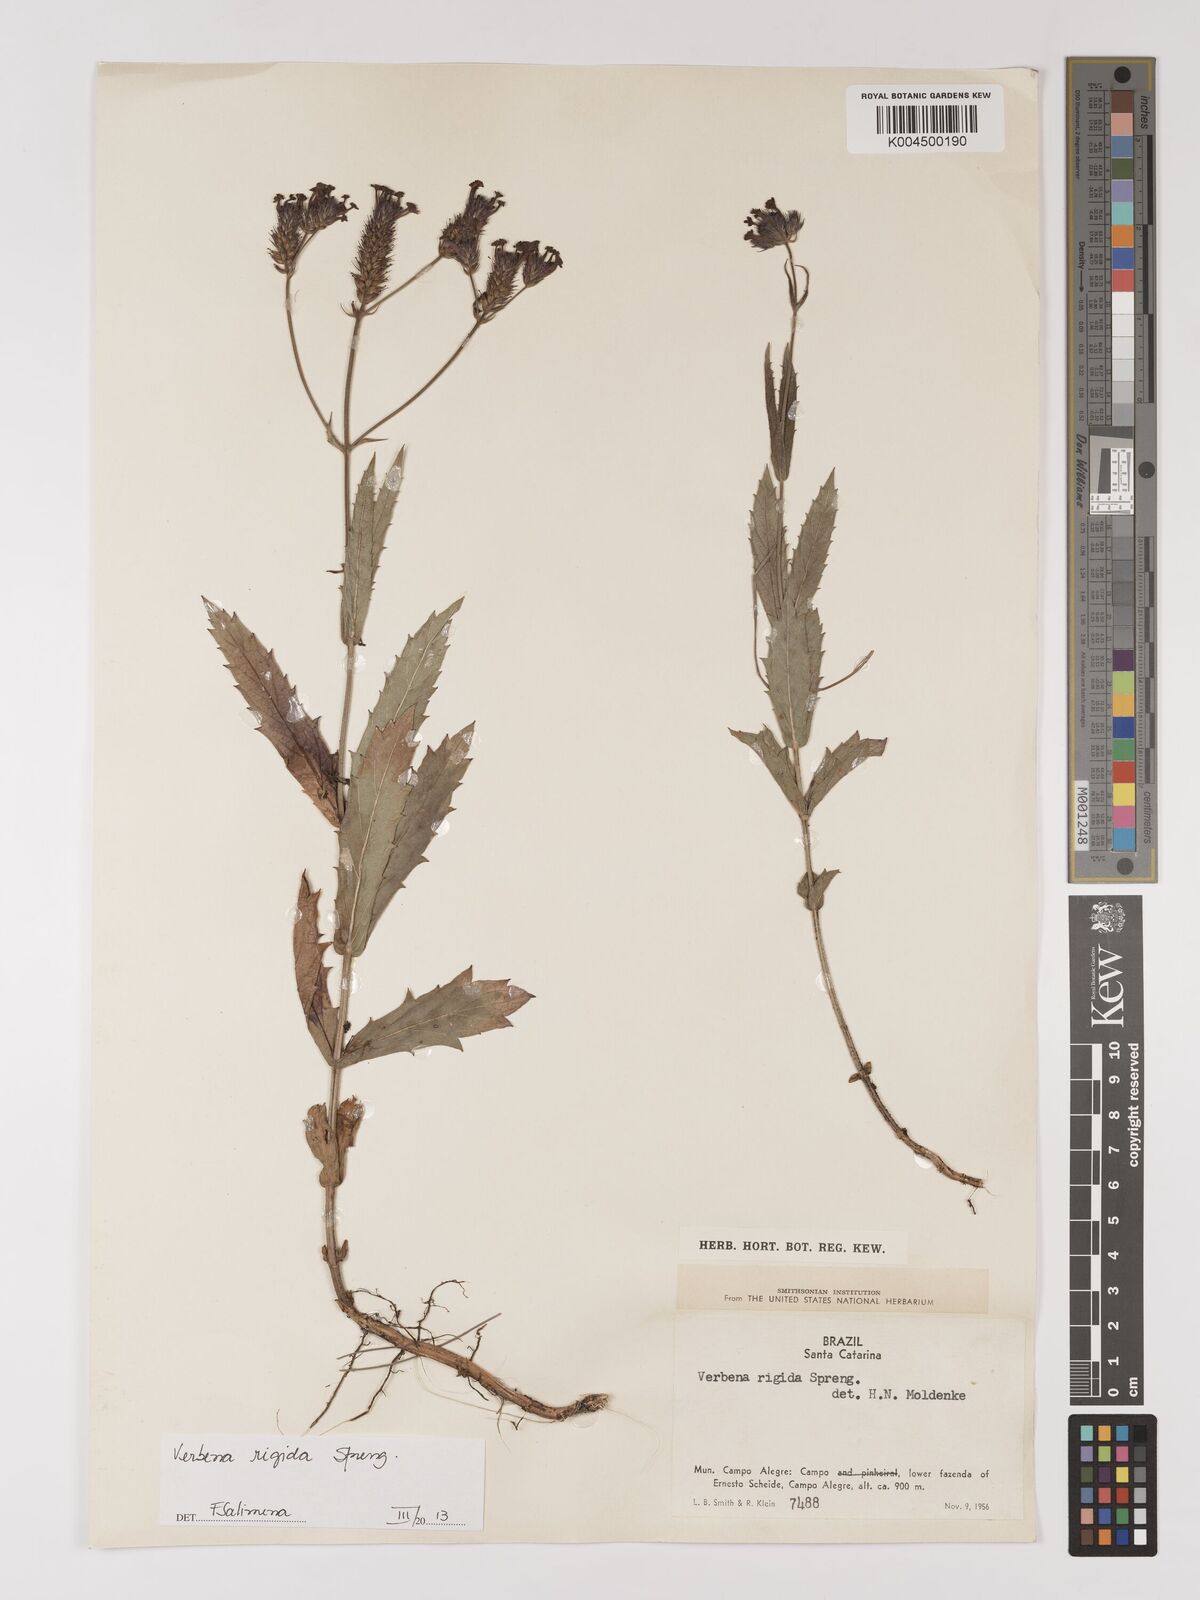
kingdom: Plantae
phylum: Tracheophyta
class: Magnoliopsida
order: Lamiales
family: Verbenaceae
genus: Verbena
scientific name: Verbena rigida
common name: Slender vervain
